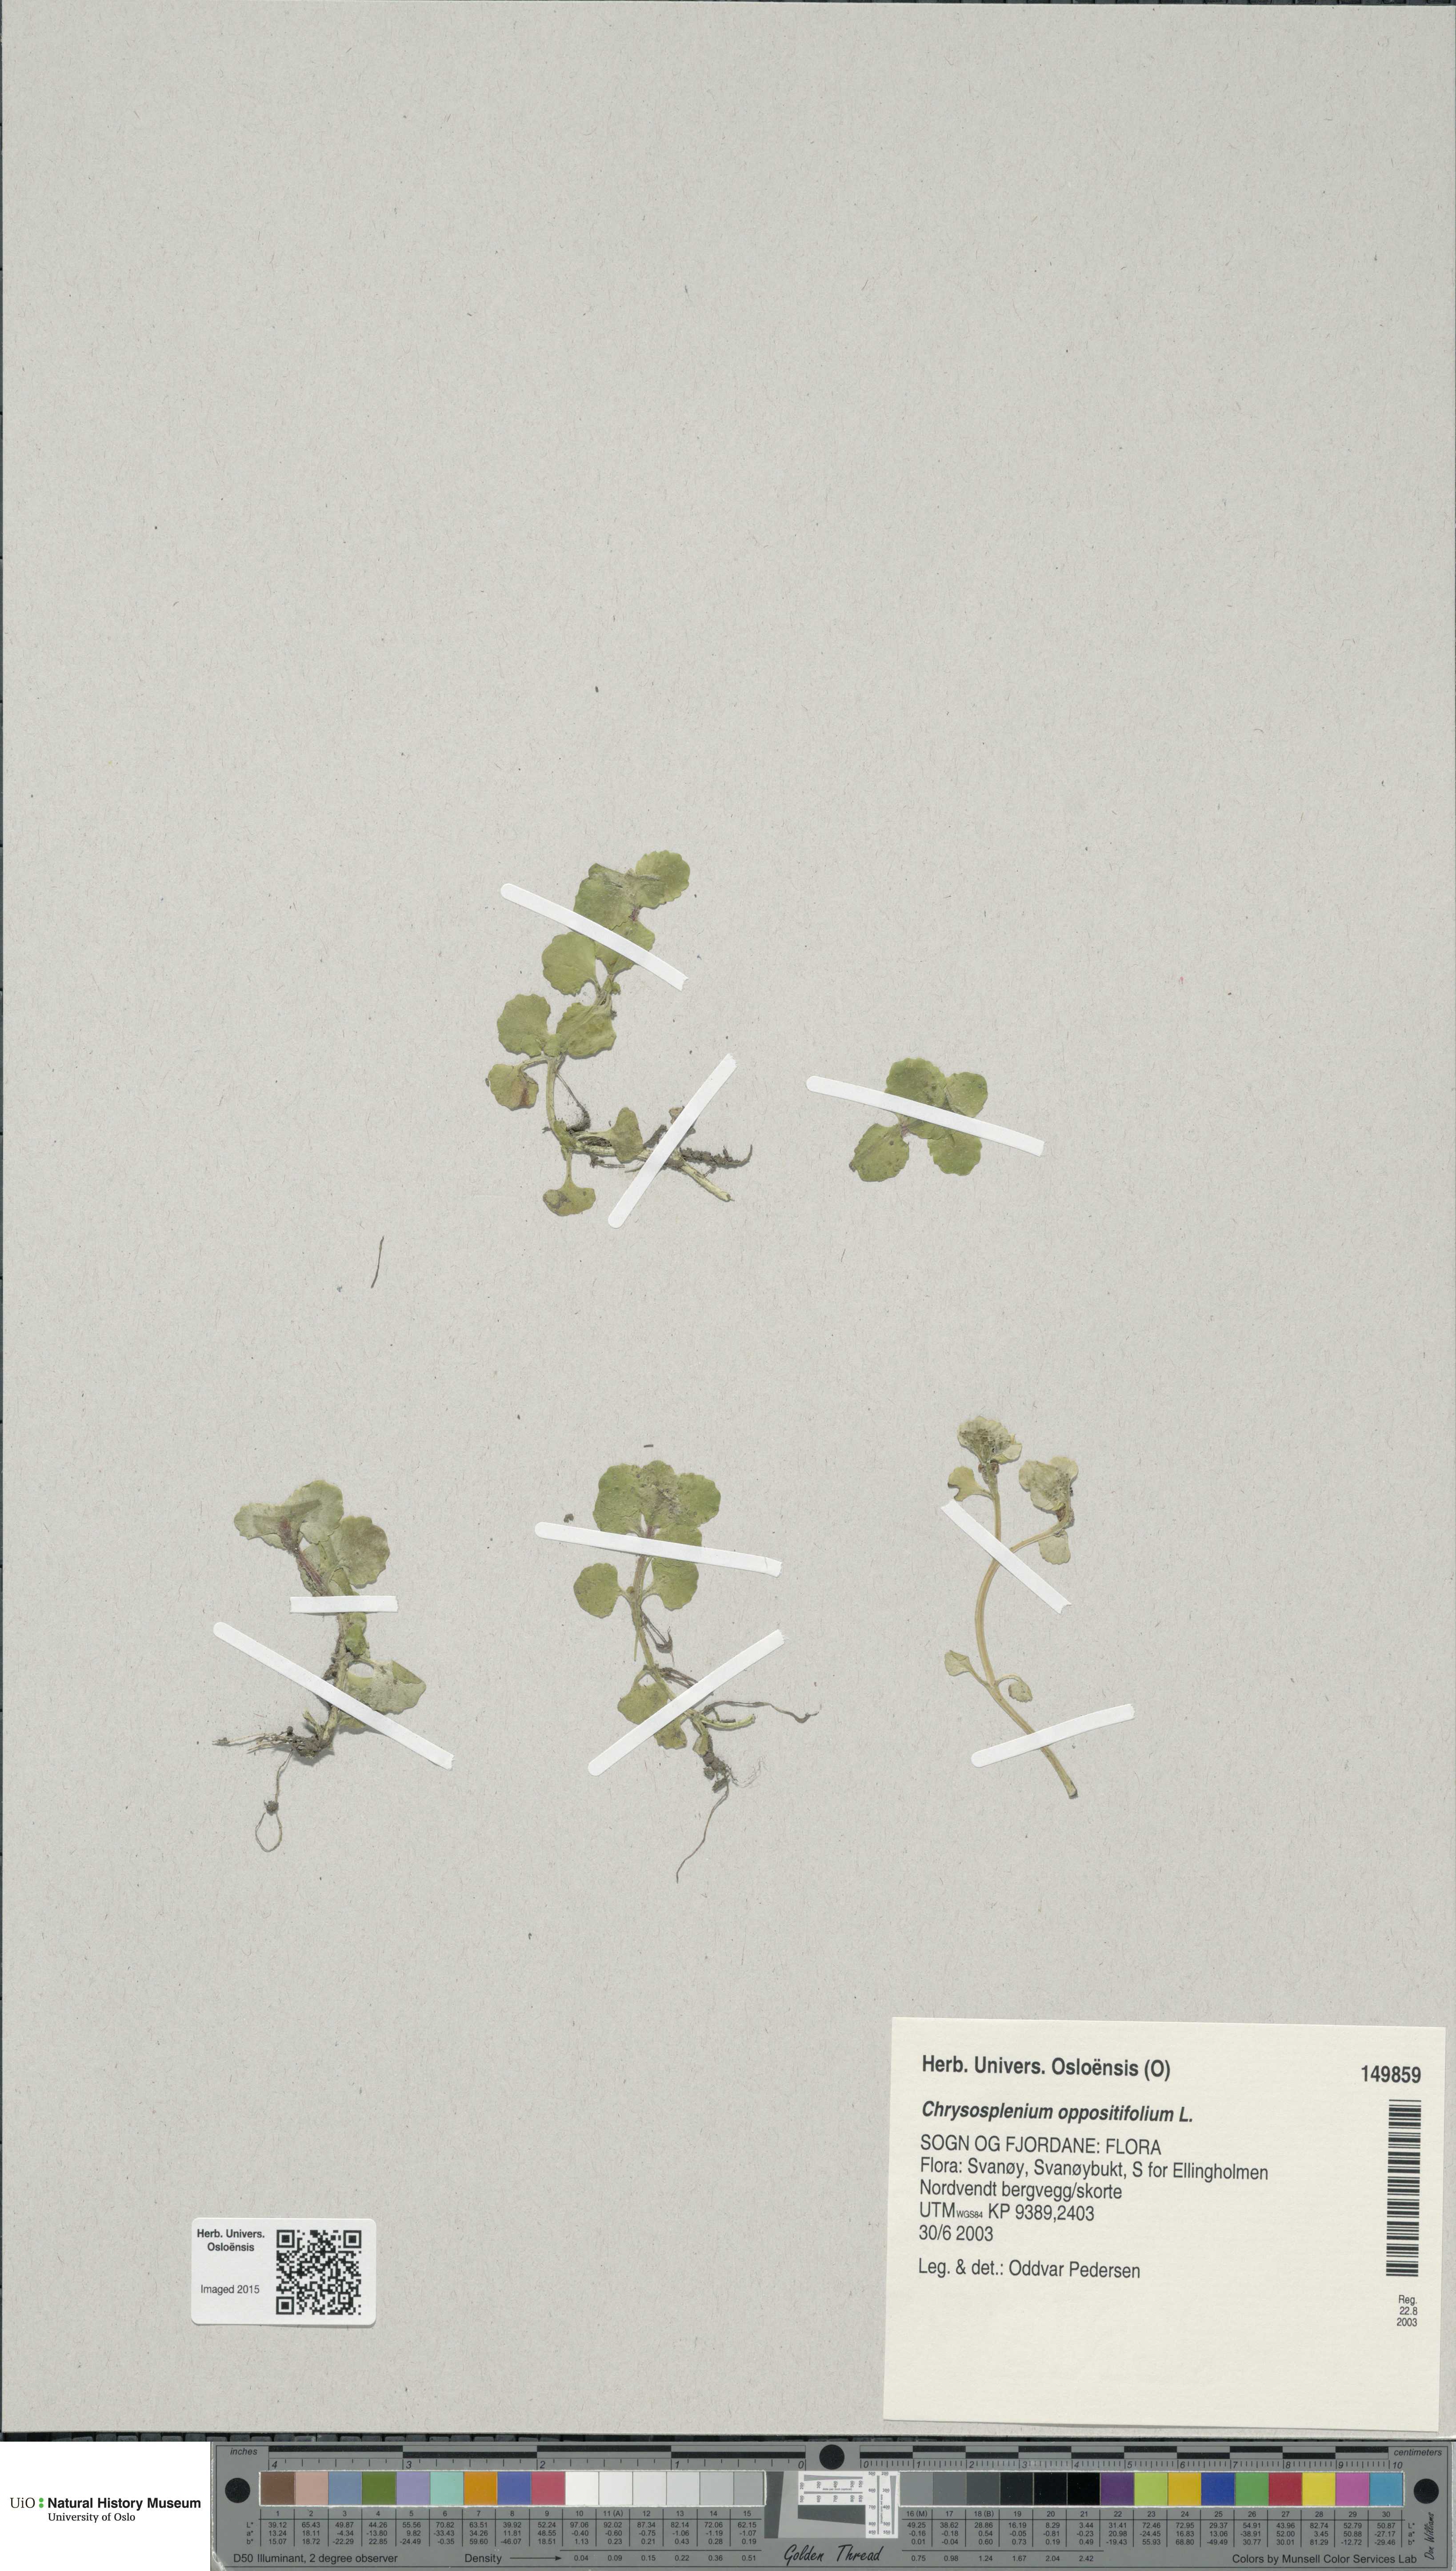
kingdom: Plantae
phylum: Tracheophyta
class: Magnoliopsida
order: Saxifragales
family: Saxifragaceae
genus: Chrysosplenium
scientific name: Chrysosplenium oppositifolium
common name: Opposite-leaved golden-saxifrage
